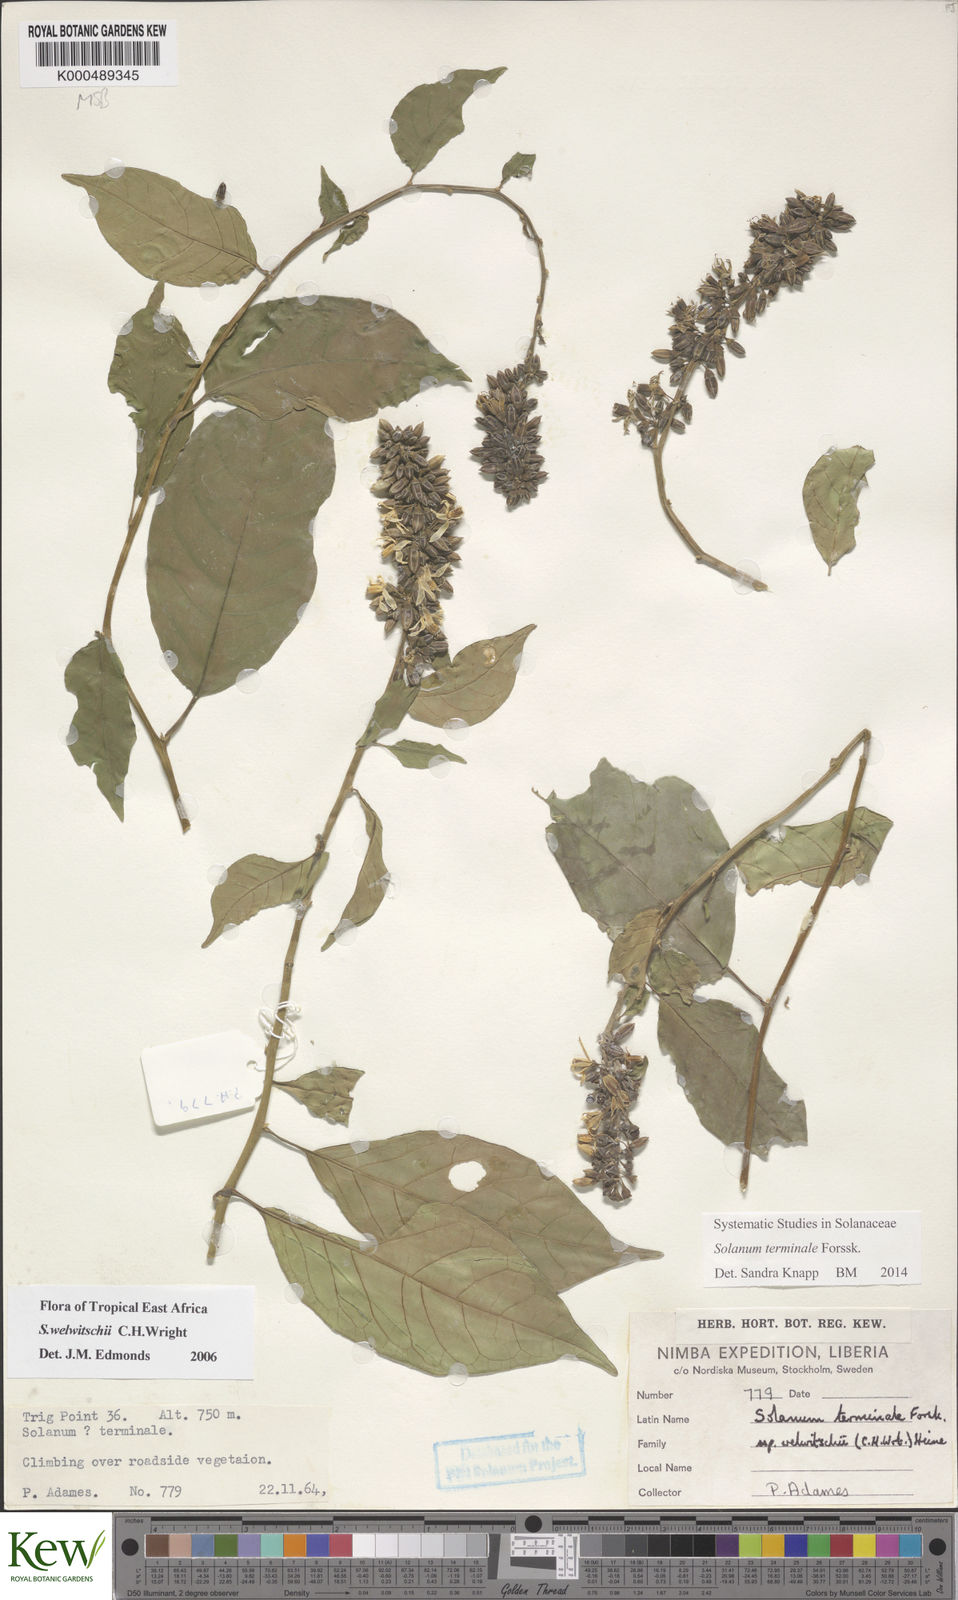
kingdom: Plantae
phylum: Tracheophyta
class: Magnoliopsida
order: Solanales
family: Solanaceae
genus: Solanum
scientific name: Solanum terminale
